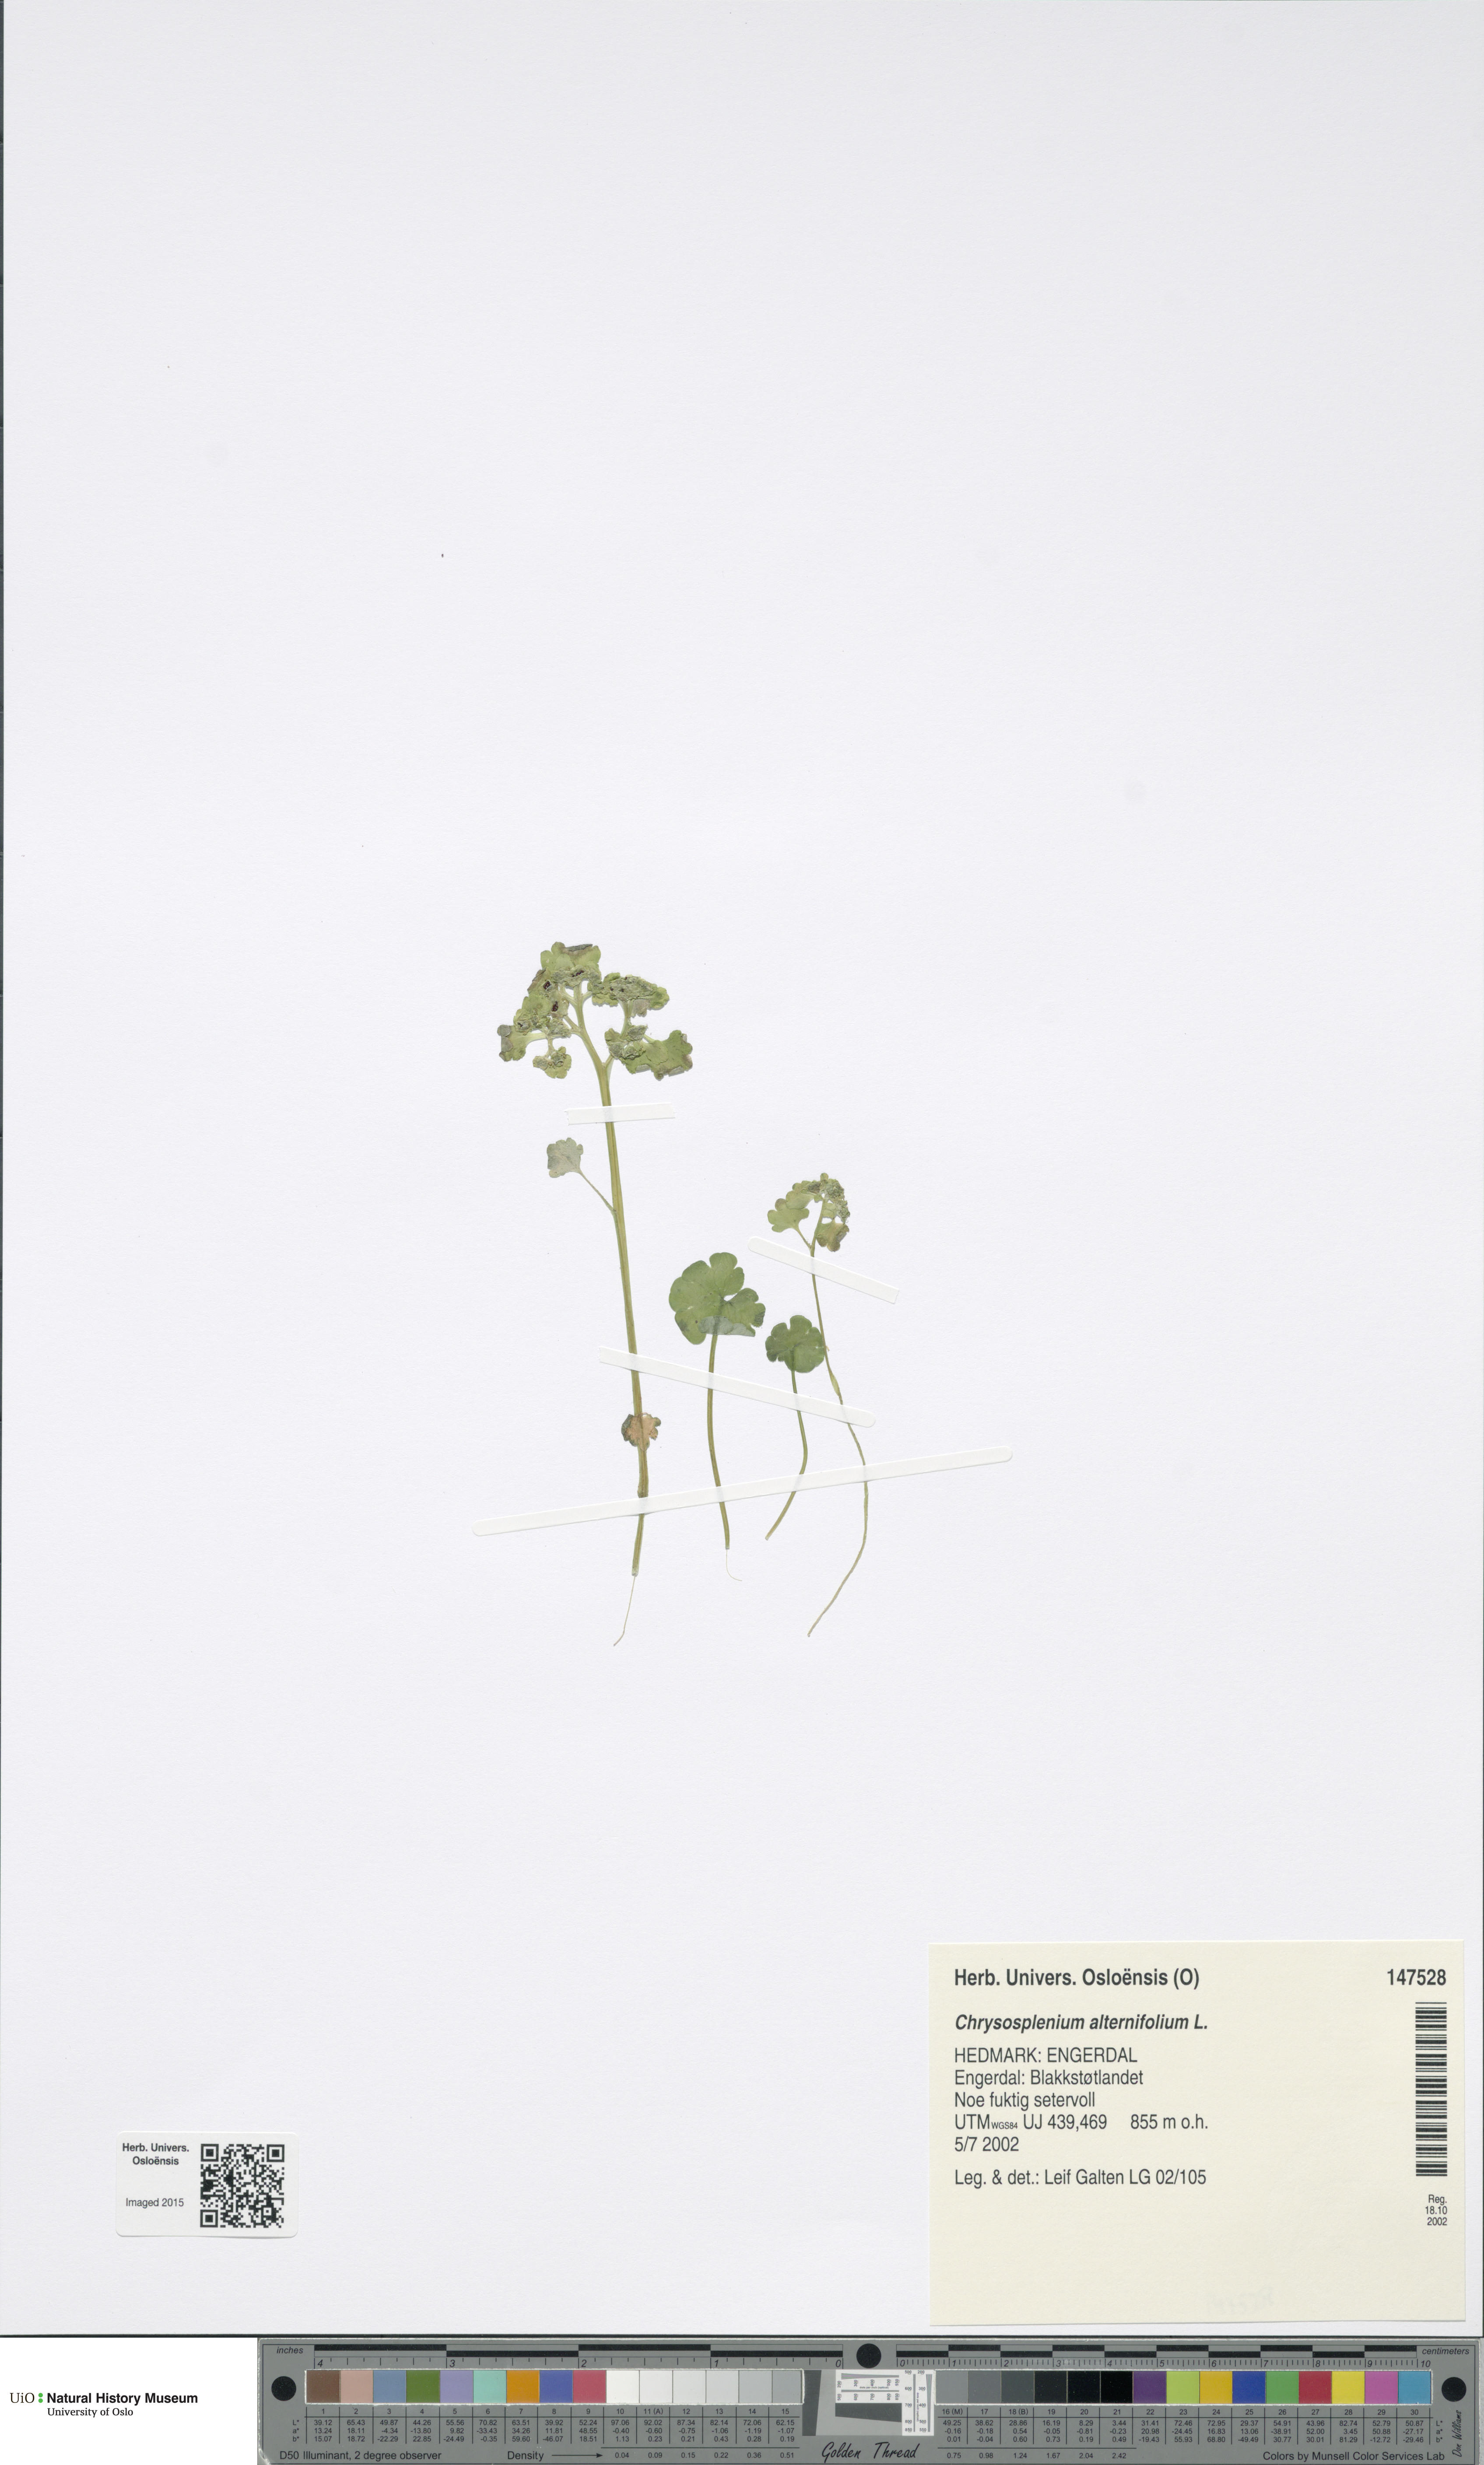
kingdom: Plantae
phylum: Tracheophyta
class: Magnoliopsida
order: Saxifragales
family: Saxifragaceae
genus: Chrysosplenium
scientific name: Chrysosplenium alternifolium
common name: Alternate-leaved golden-saxifrage
